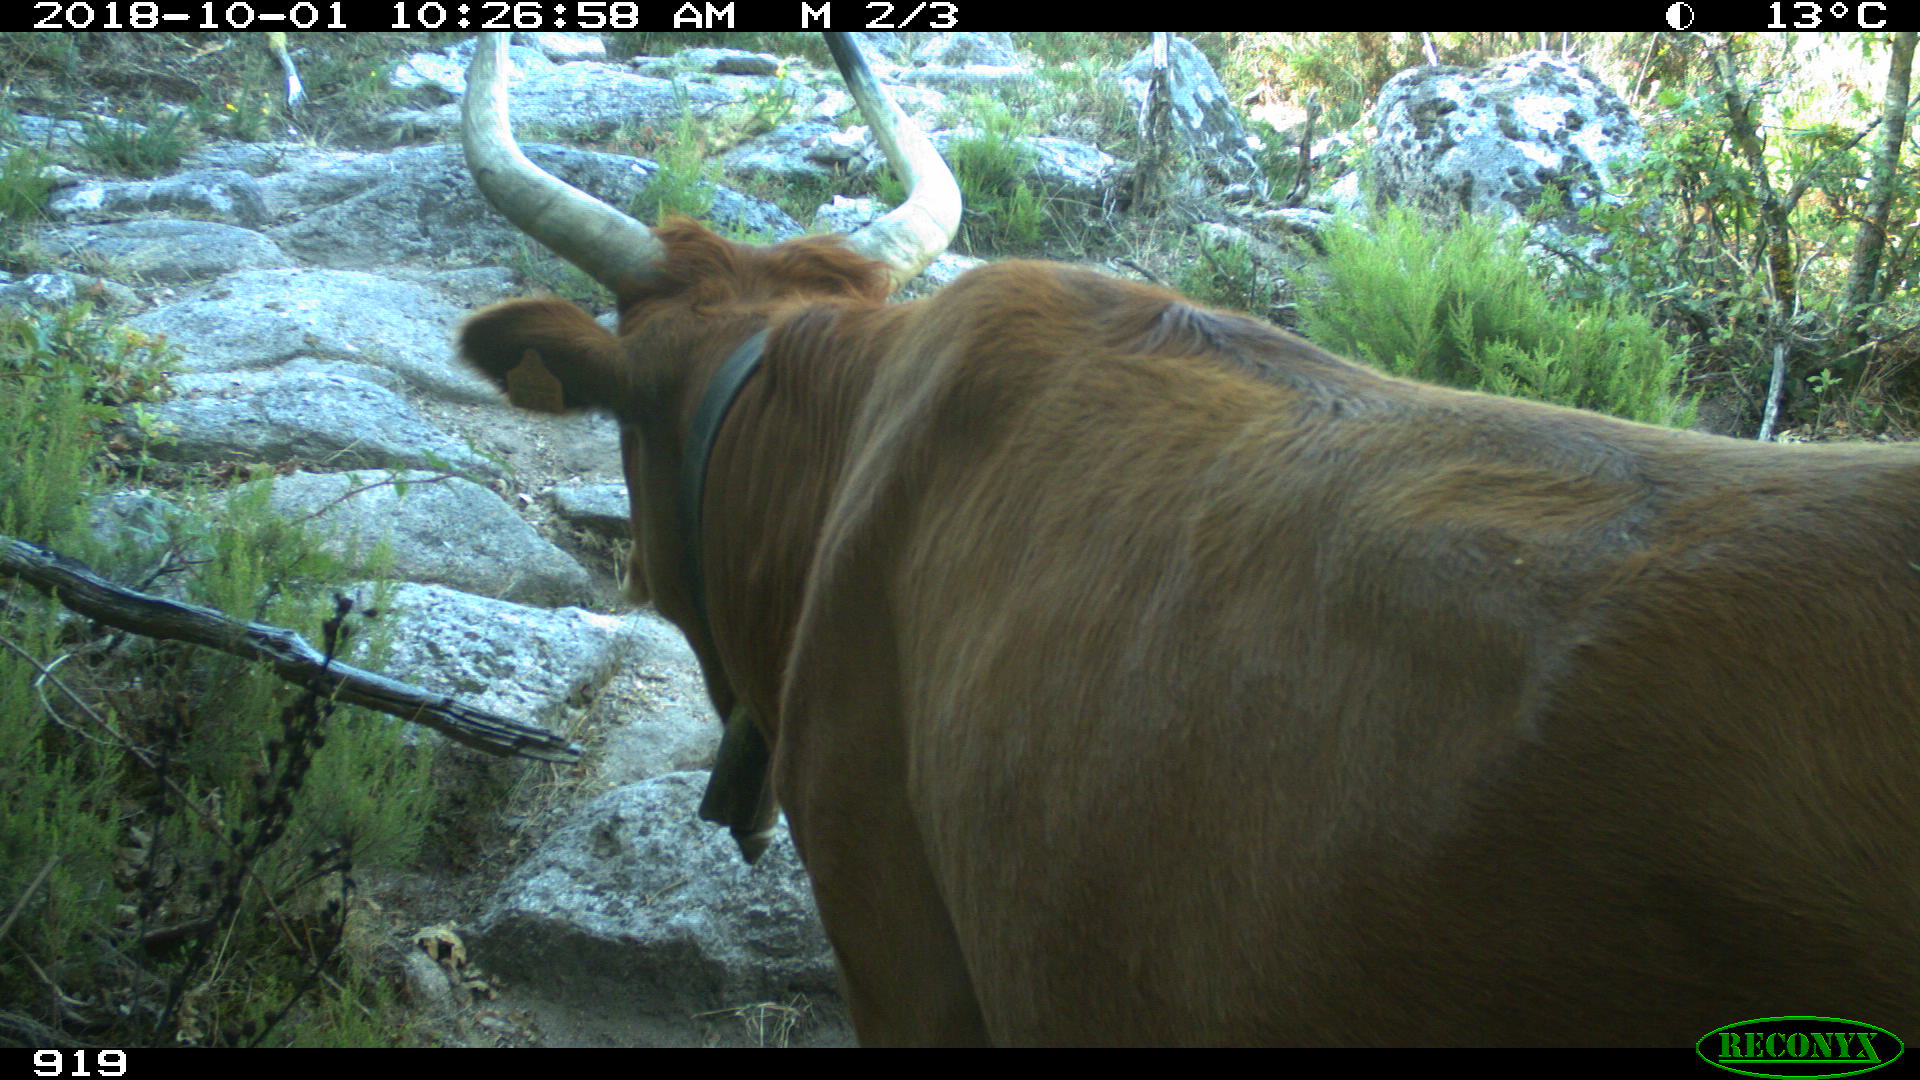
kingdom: Animalia
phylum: Chordata
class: Mammalia
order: Artiodactyla
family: Bovidae
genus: Bos
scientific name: Bos taurus
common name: Domesticated cattle
